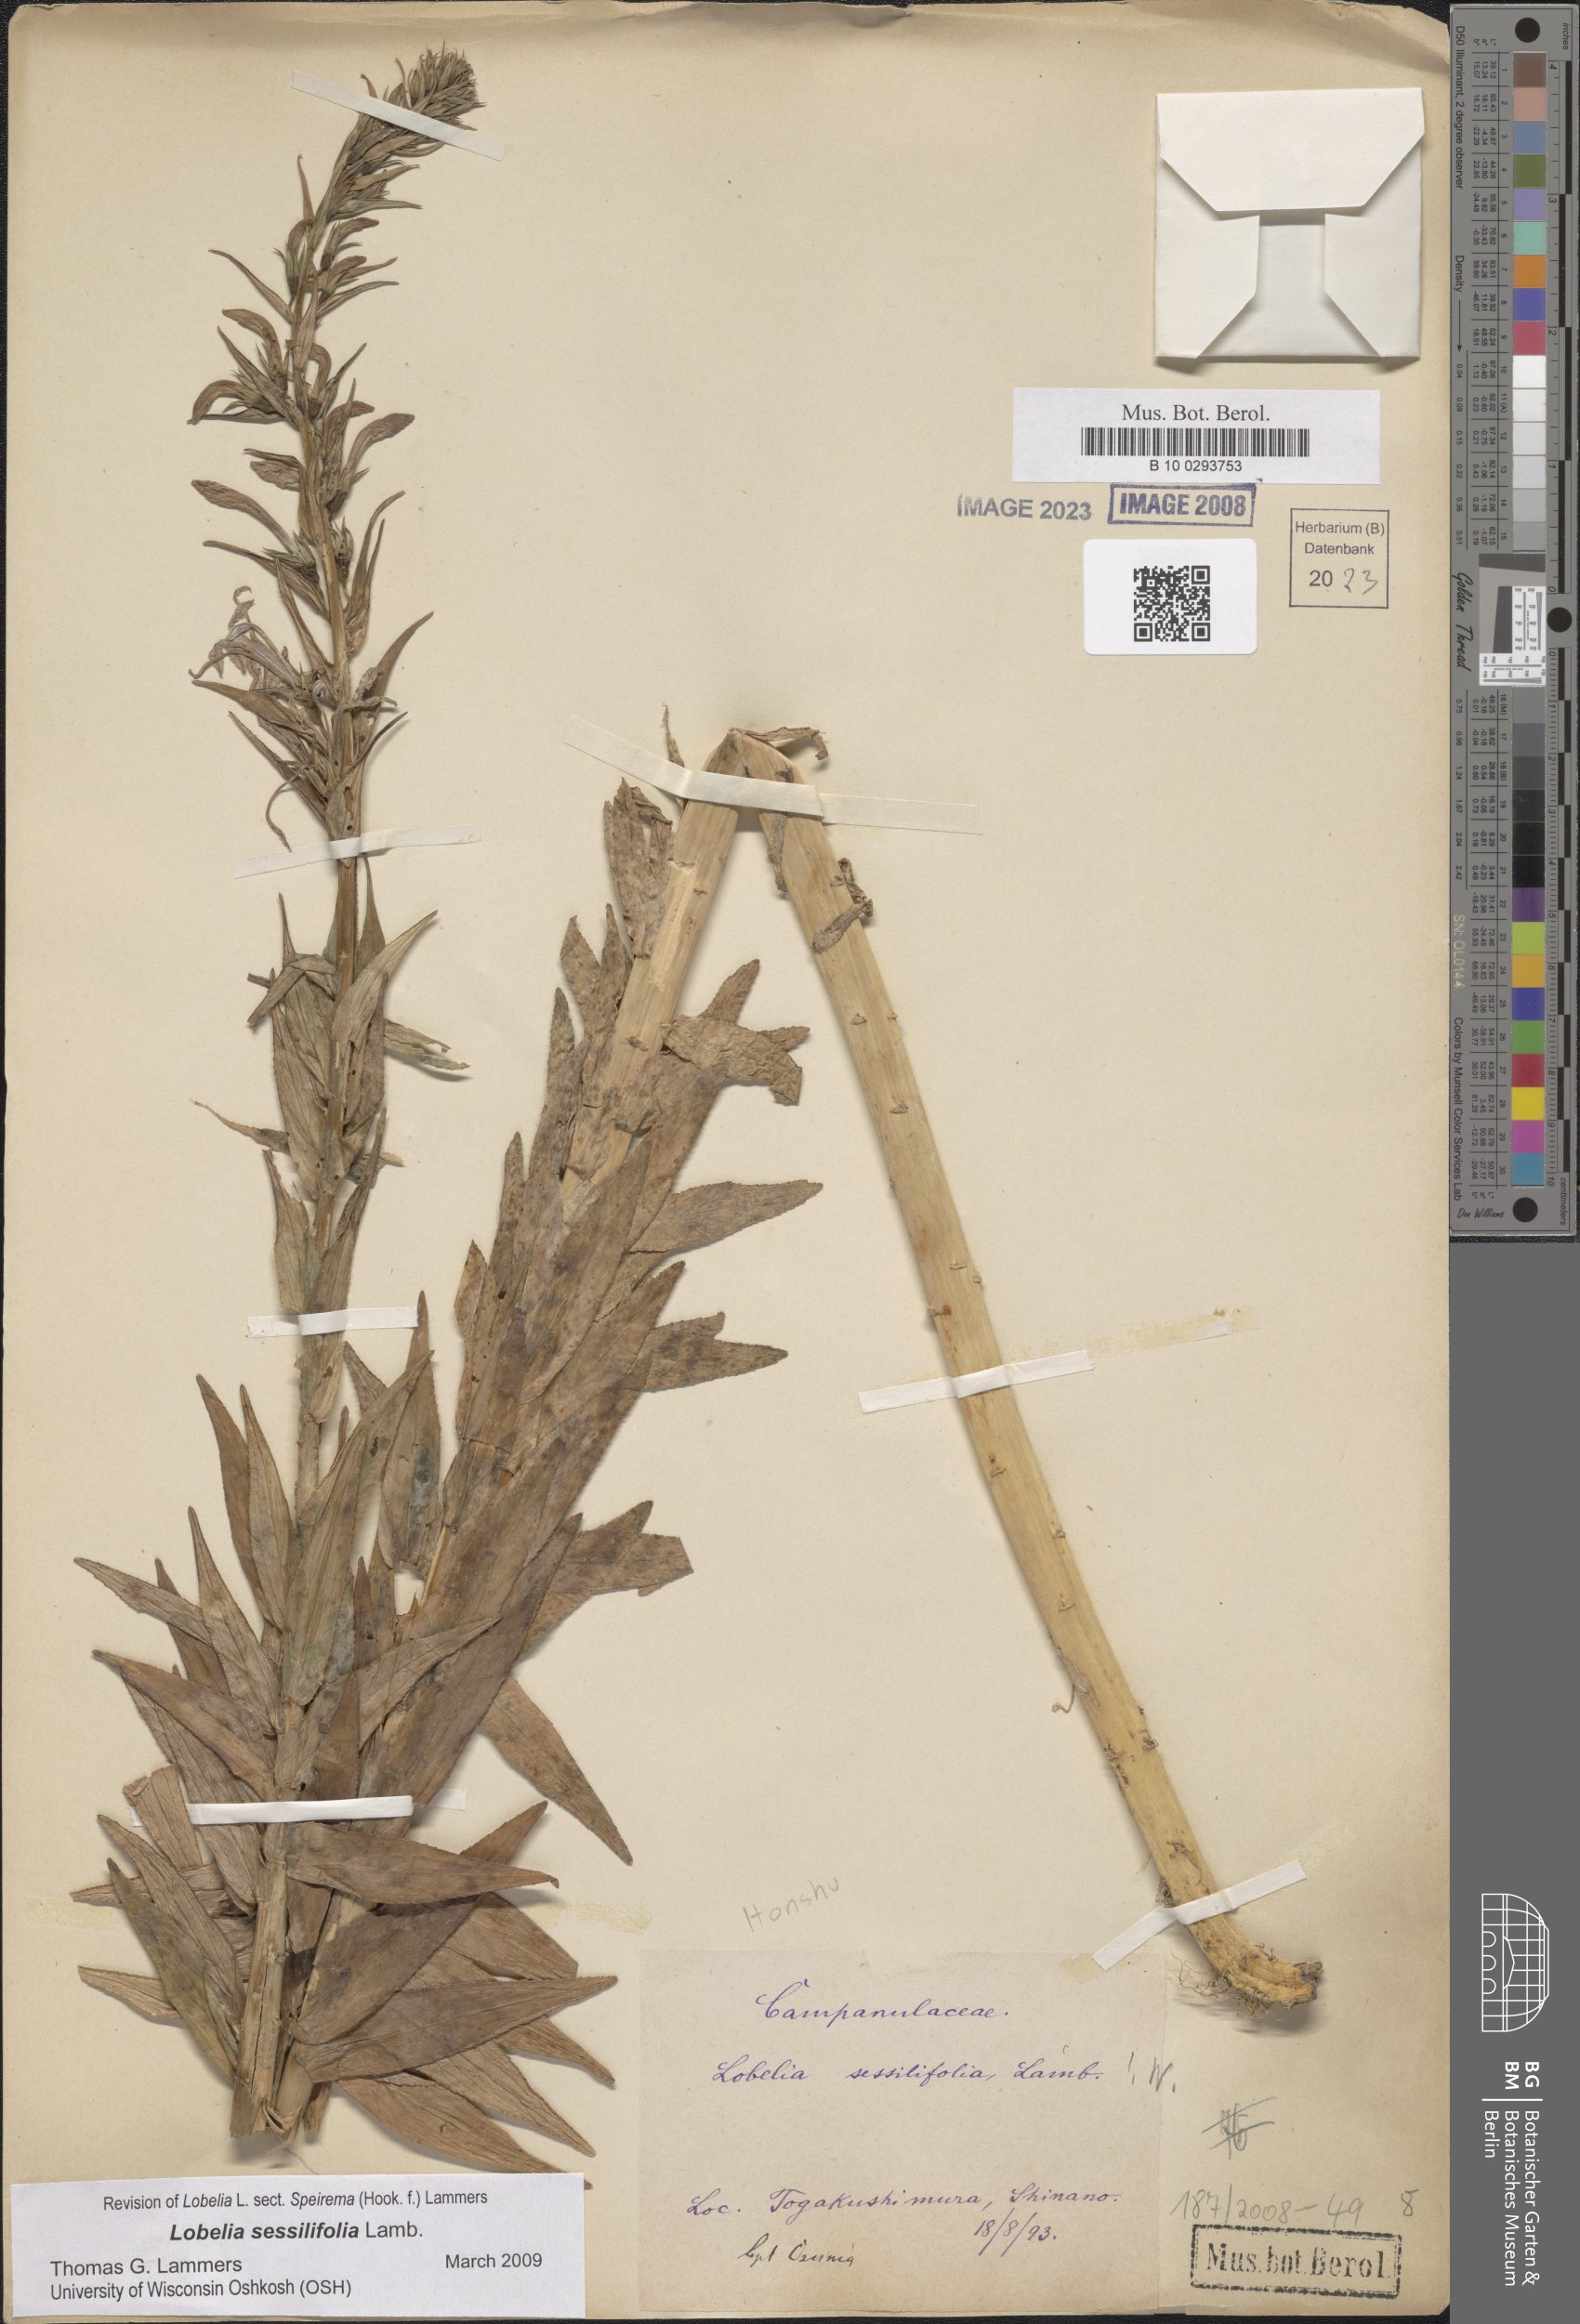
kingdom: Plantae
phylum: Tracheophyta
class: Magnoliopsida
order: Asterales
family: Campanulaceae
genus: Lobelia
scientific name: Lobelia sessilifolia
